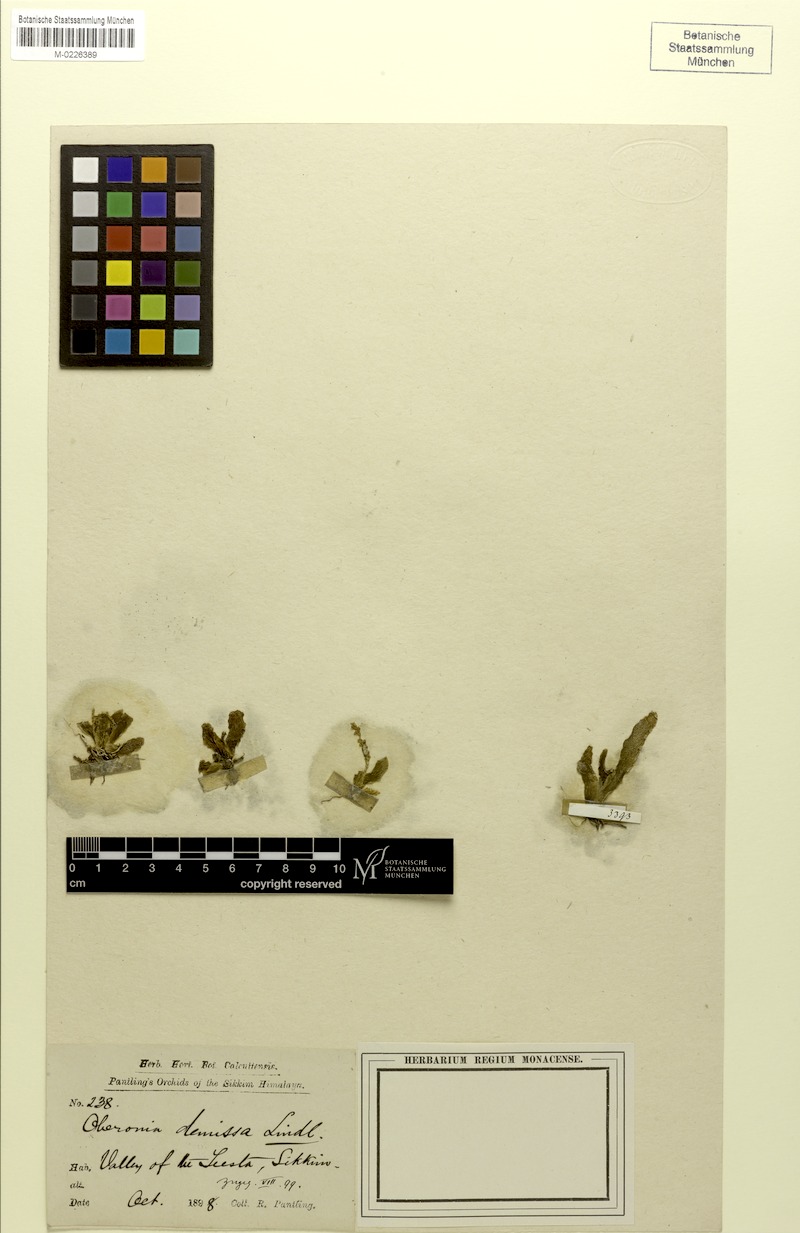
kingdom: Plantae
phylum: Tracheophyta
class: Liliopsida
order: Asparagales
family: Orchidaceae
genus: Oberonia
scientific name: Oberonia brachystachys
